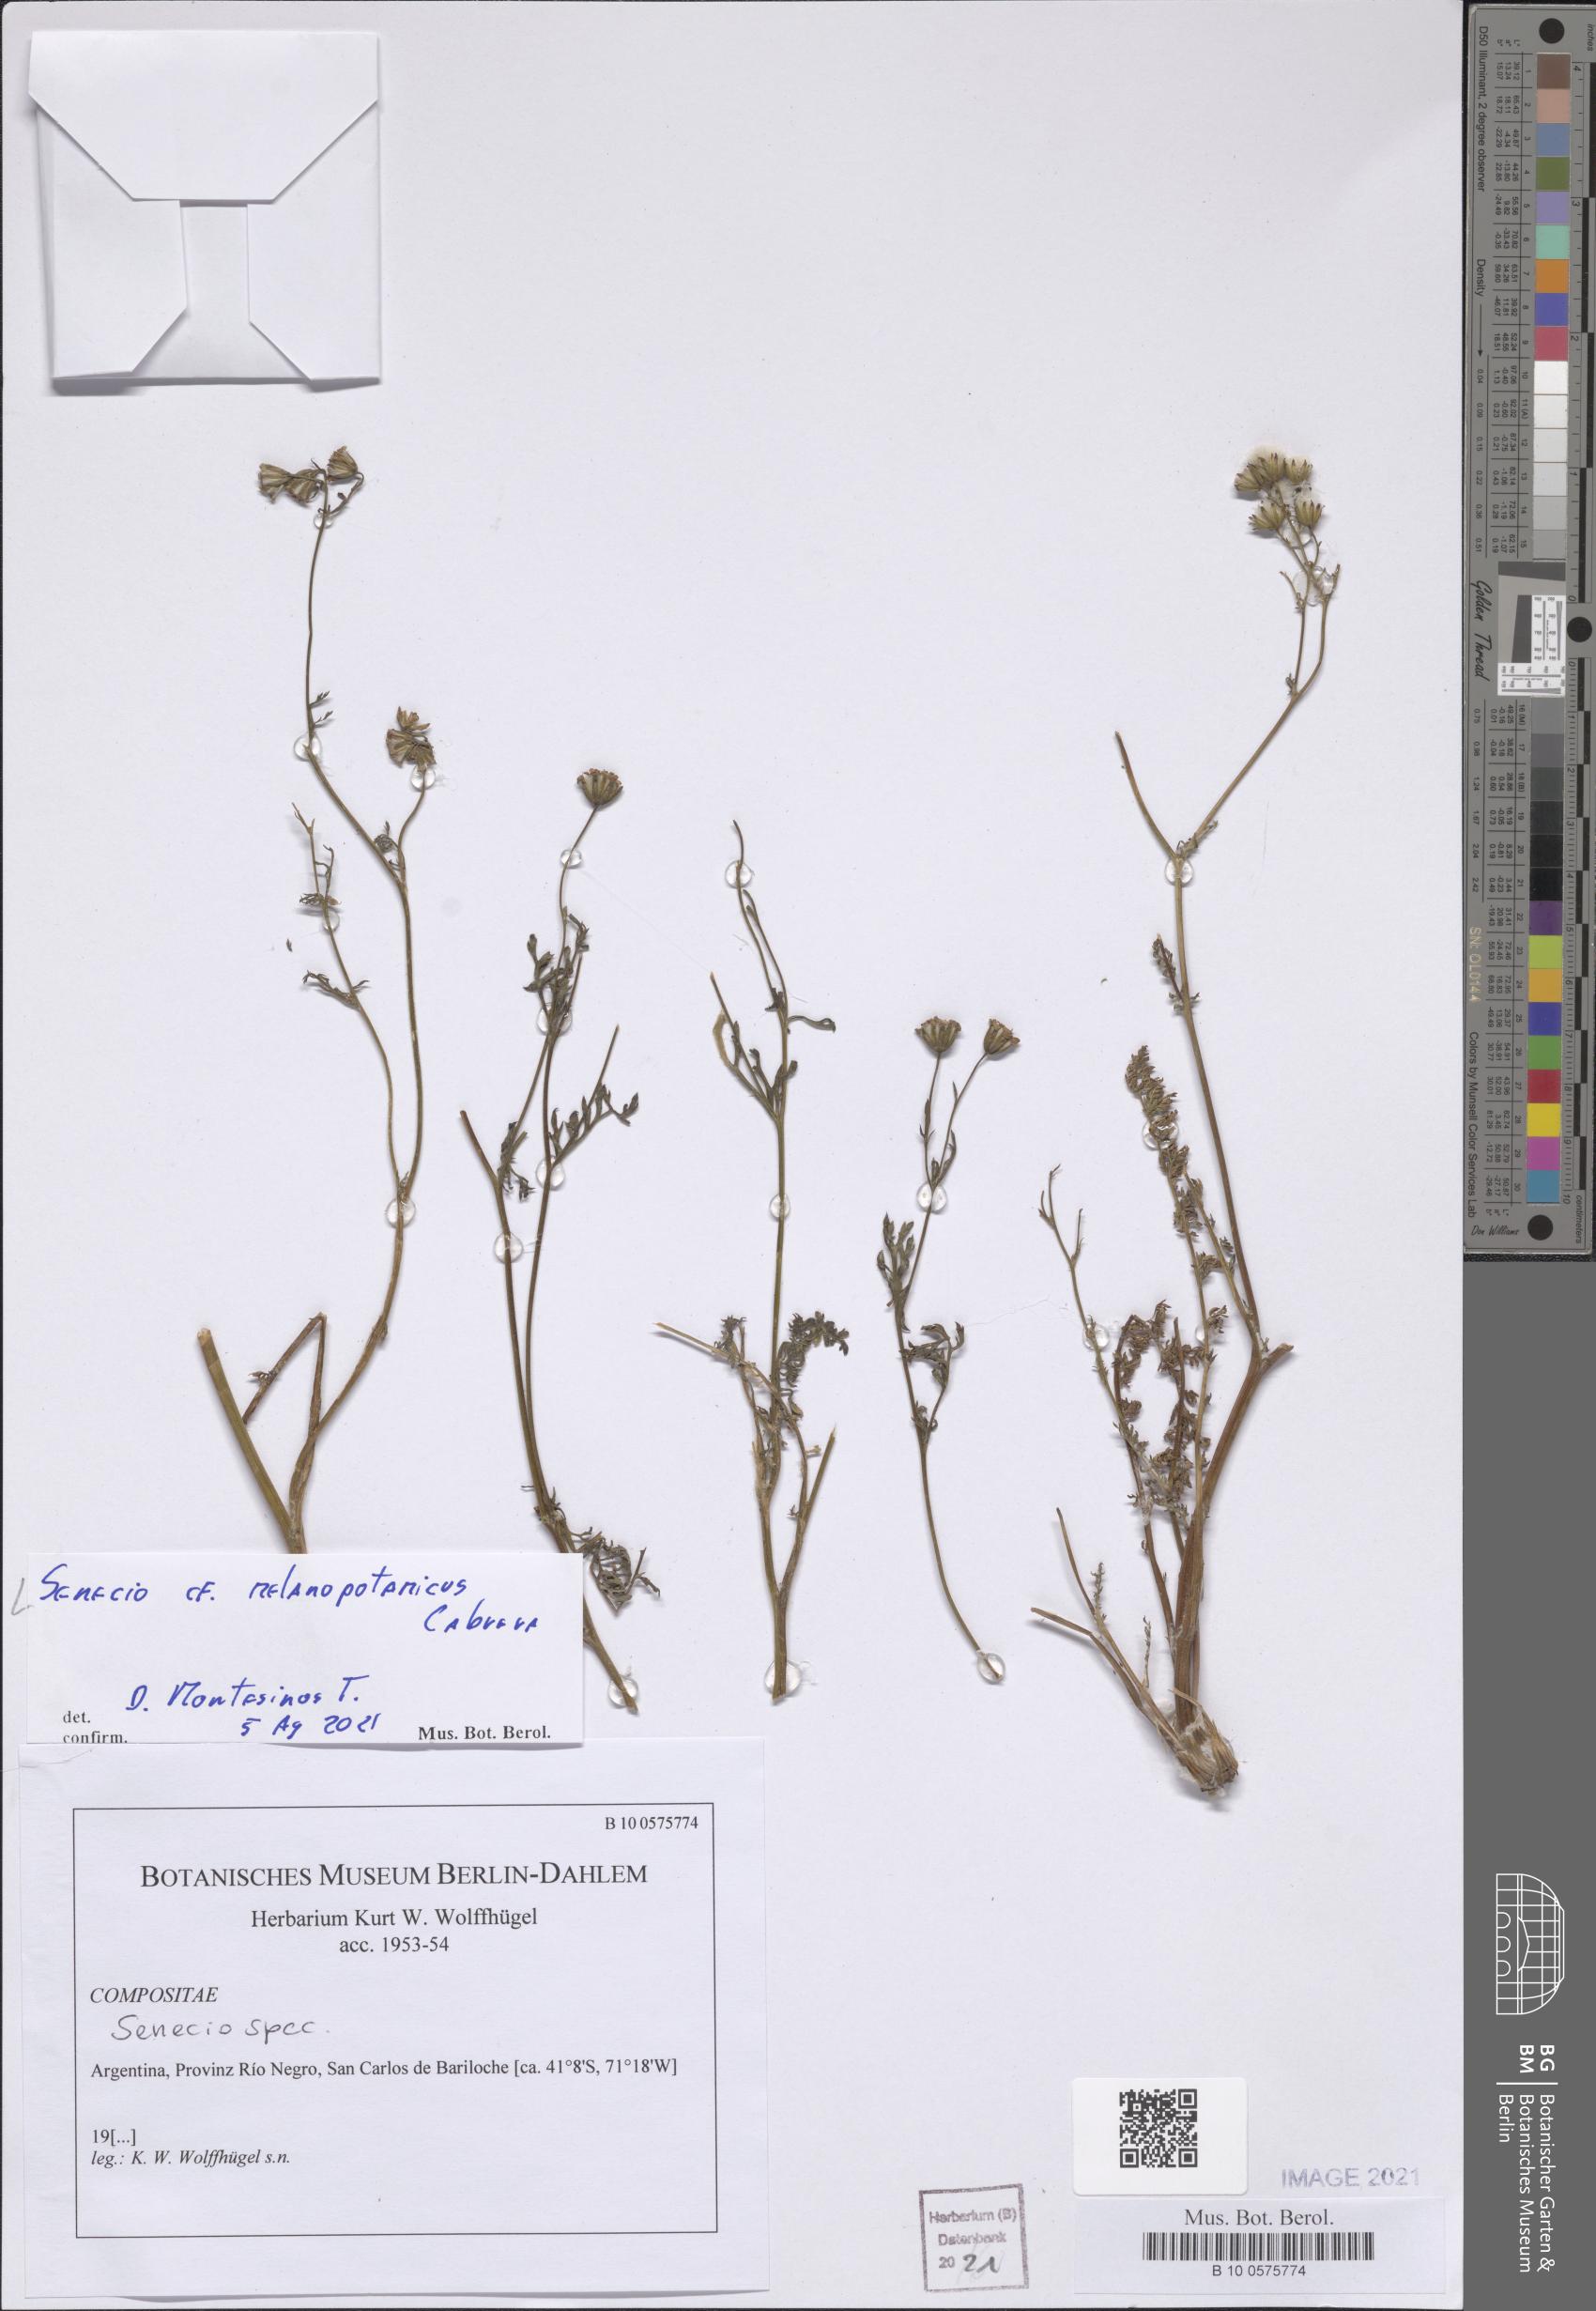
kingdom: Plantae
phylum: Tracheophyta
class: Magnoliopsida
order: Asterales
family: Asteraceae
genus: Senecio
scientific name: Senecio melanopotamicus
